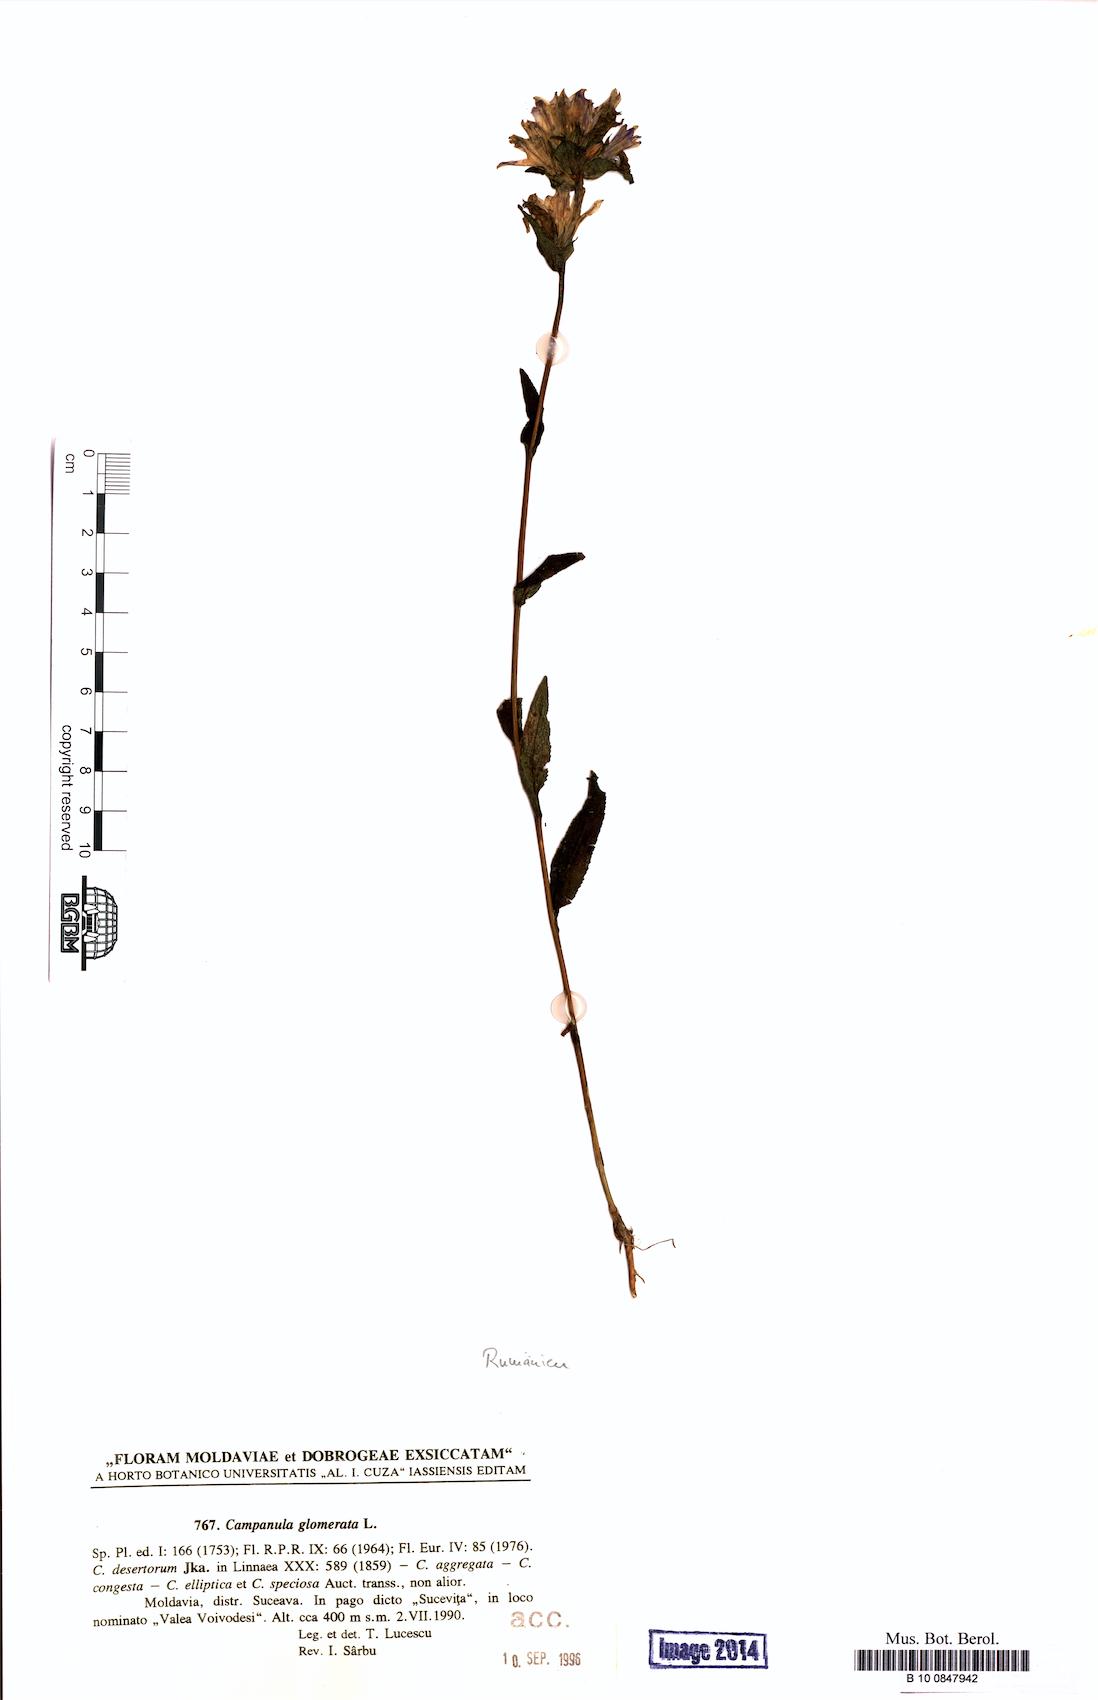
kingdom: Plantae
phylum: Tracheophyta
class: Magnoliopsida
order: Asterales
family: Campanulaceae
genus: Campanula
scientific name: Campanula glomerata
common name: Clustered bellflower
